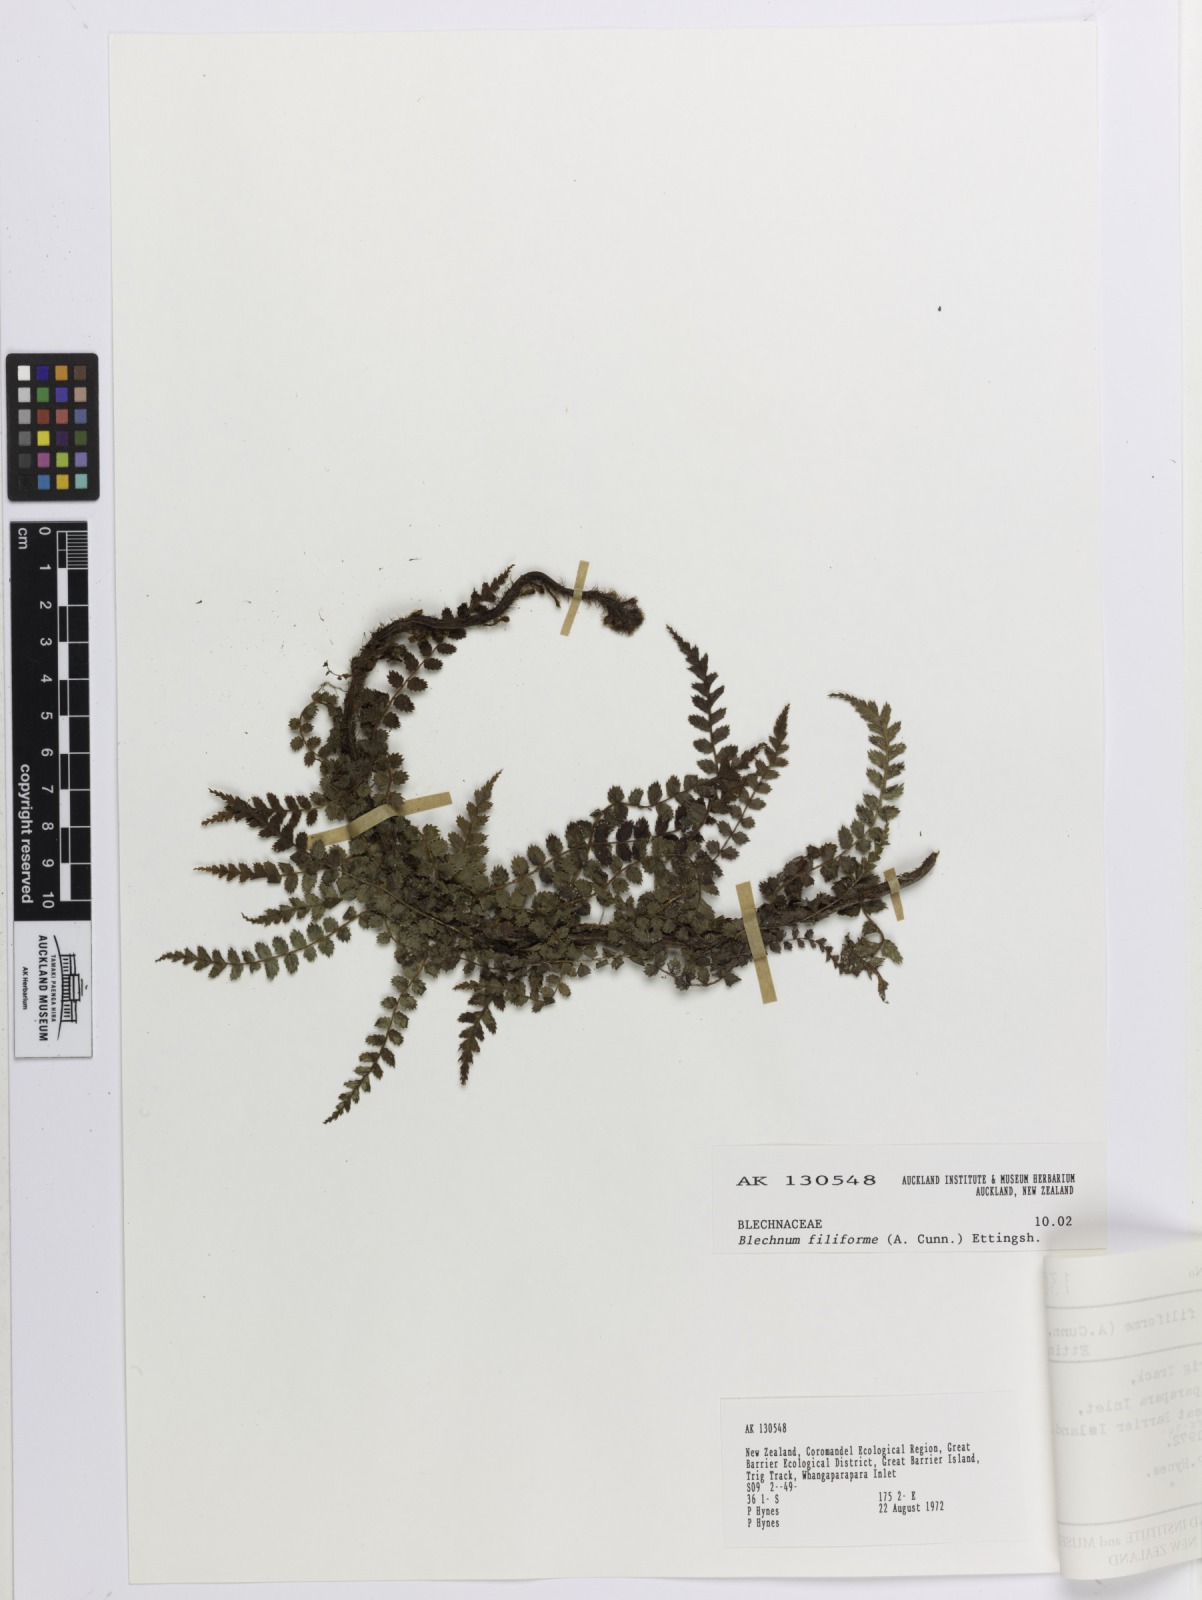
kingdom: Plantae
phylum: Tracheophyta
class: Polypodiopsida
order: Polypodiales
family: Blechnaceae
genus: Icarus
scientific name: Icarus filiformis
